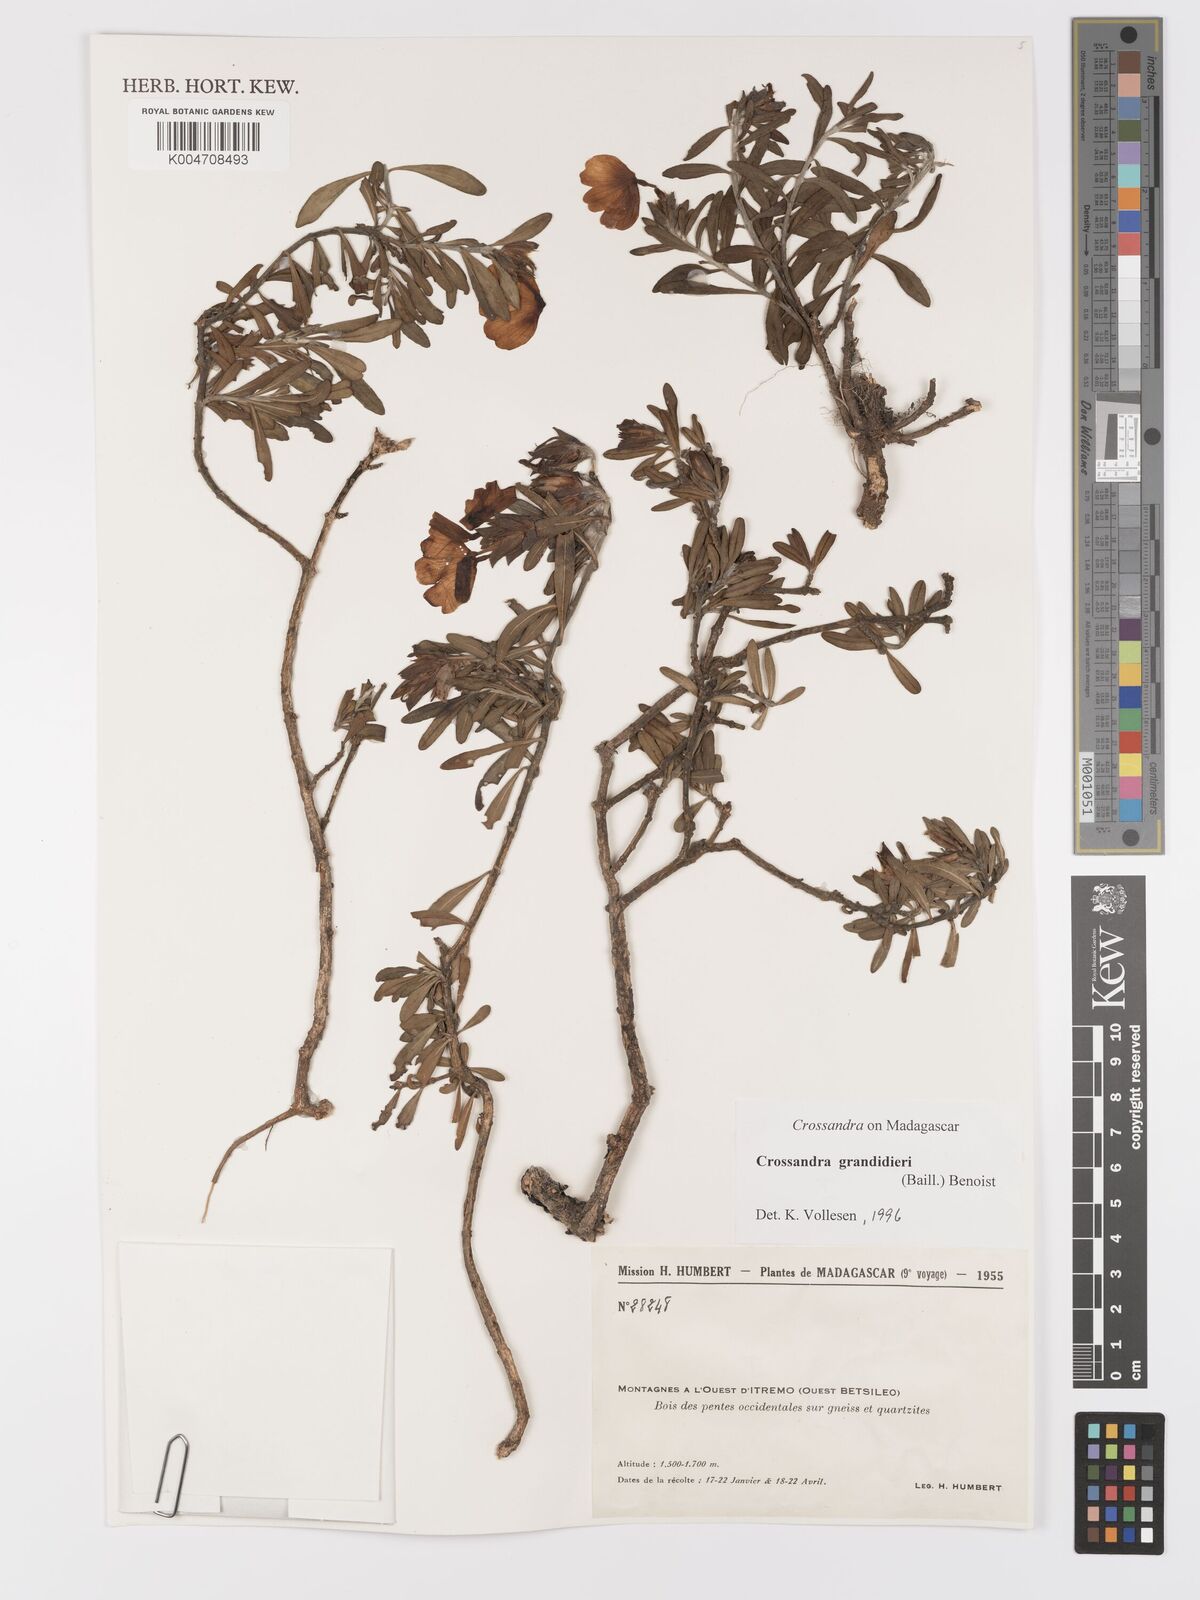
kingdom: Plantae
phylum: Tracheophyta
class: Magnoliopsida
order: Lamiales
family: Acanthaceae
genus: Crossandra
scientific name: Crossandra grandidieri
